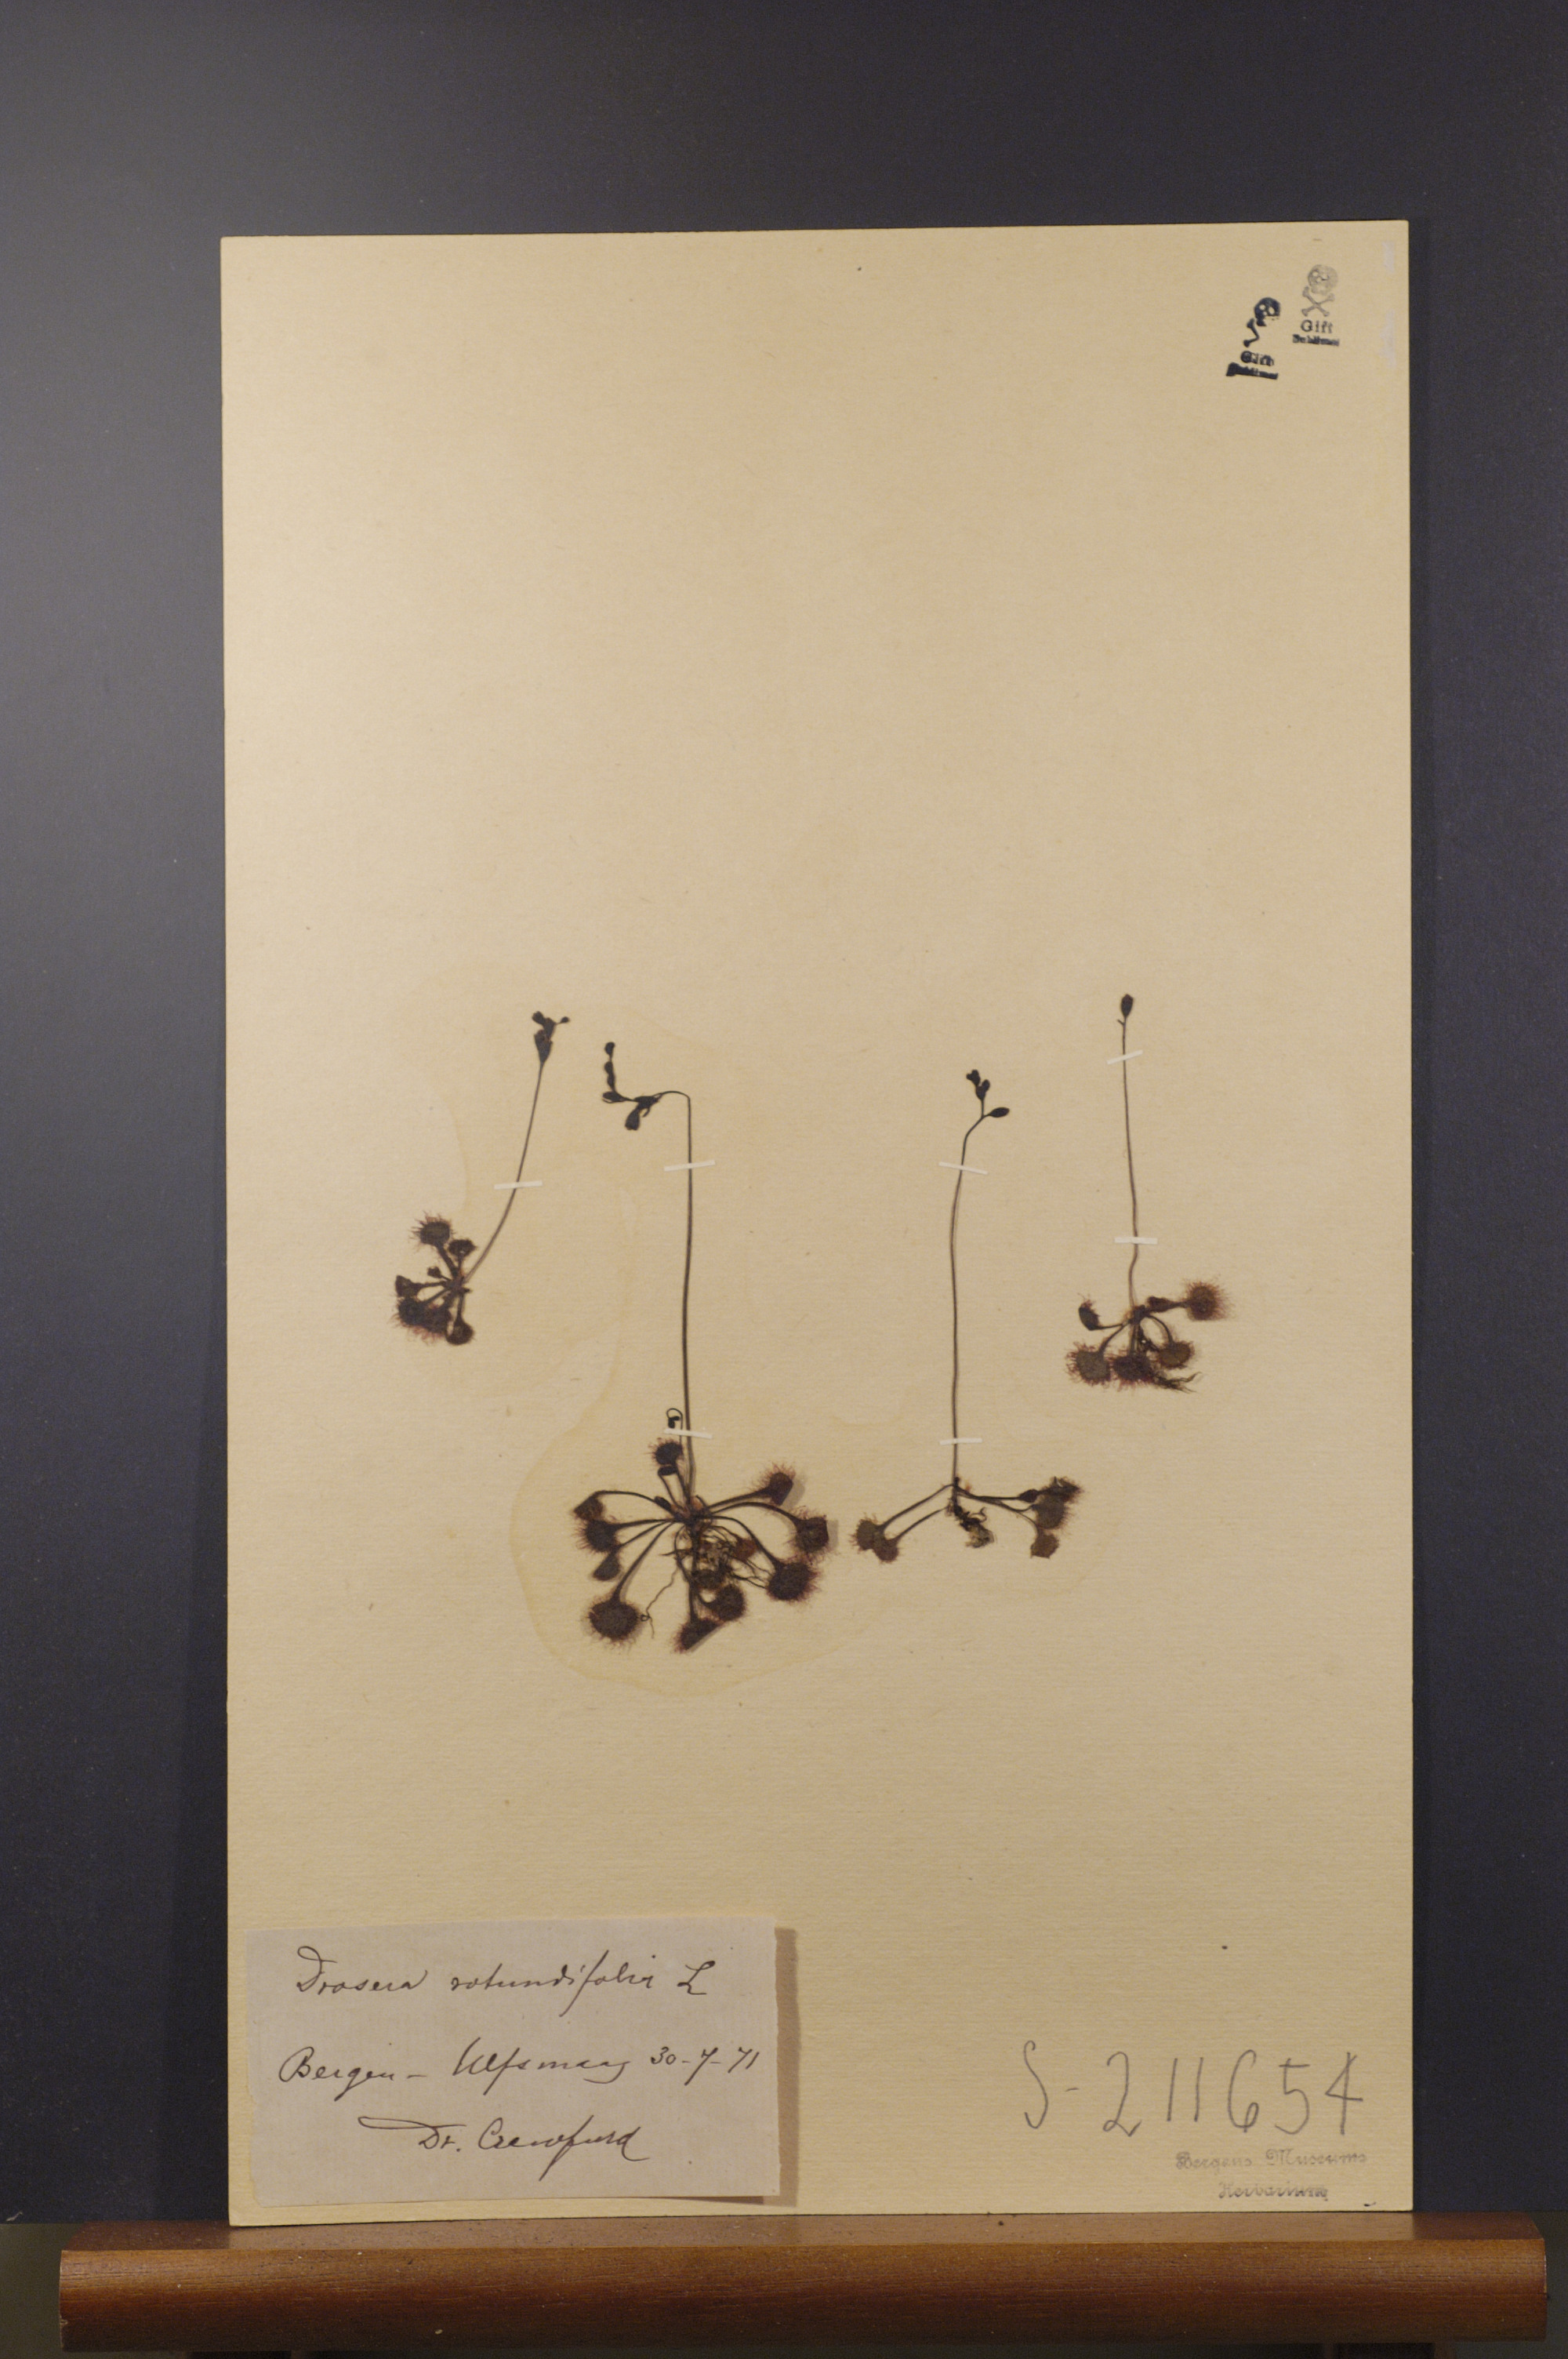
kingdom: Plantae
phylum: Tracheophyta
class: Magnoliopsida
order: Caryophyllales
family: Droseraceae
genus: Drosera
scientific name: Drosera rotundifolia
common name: Round-leaved sundew
